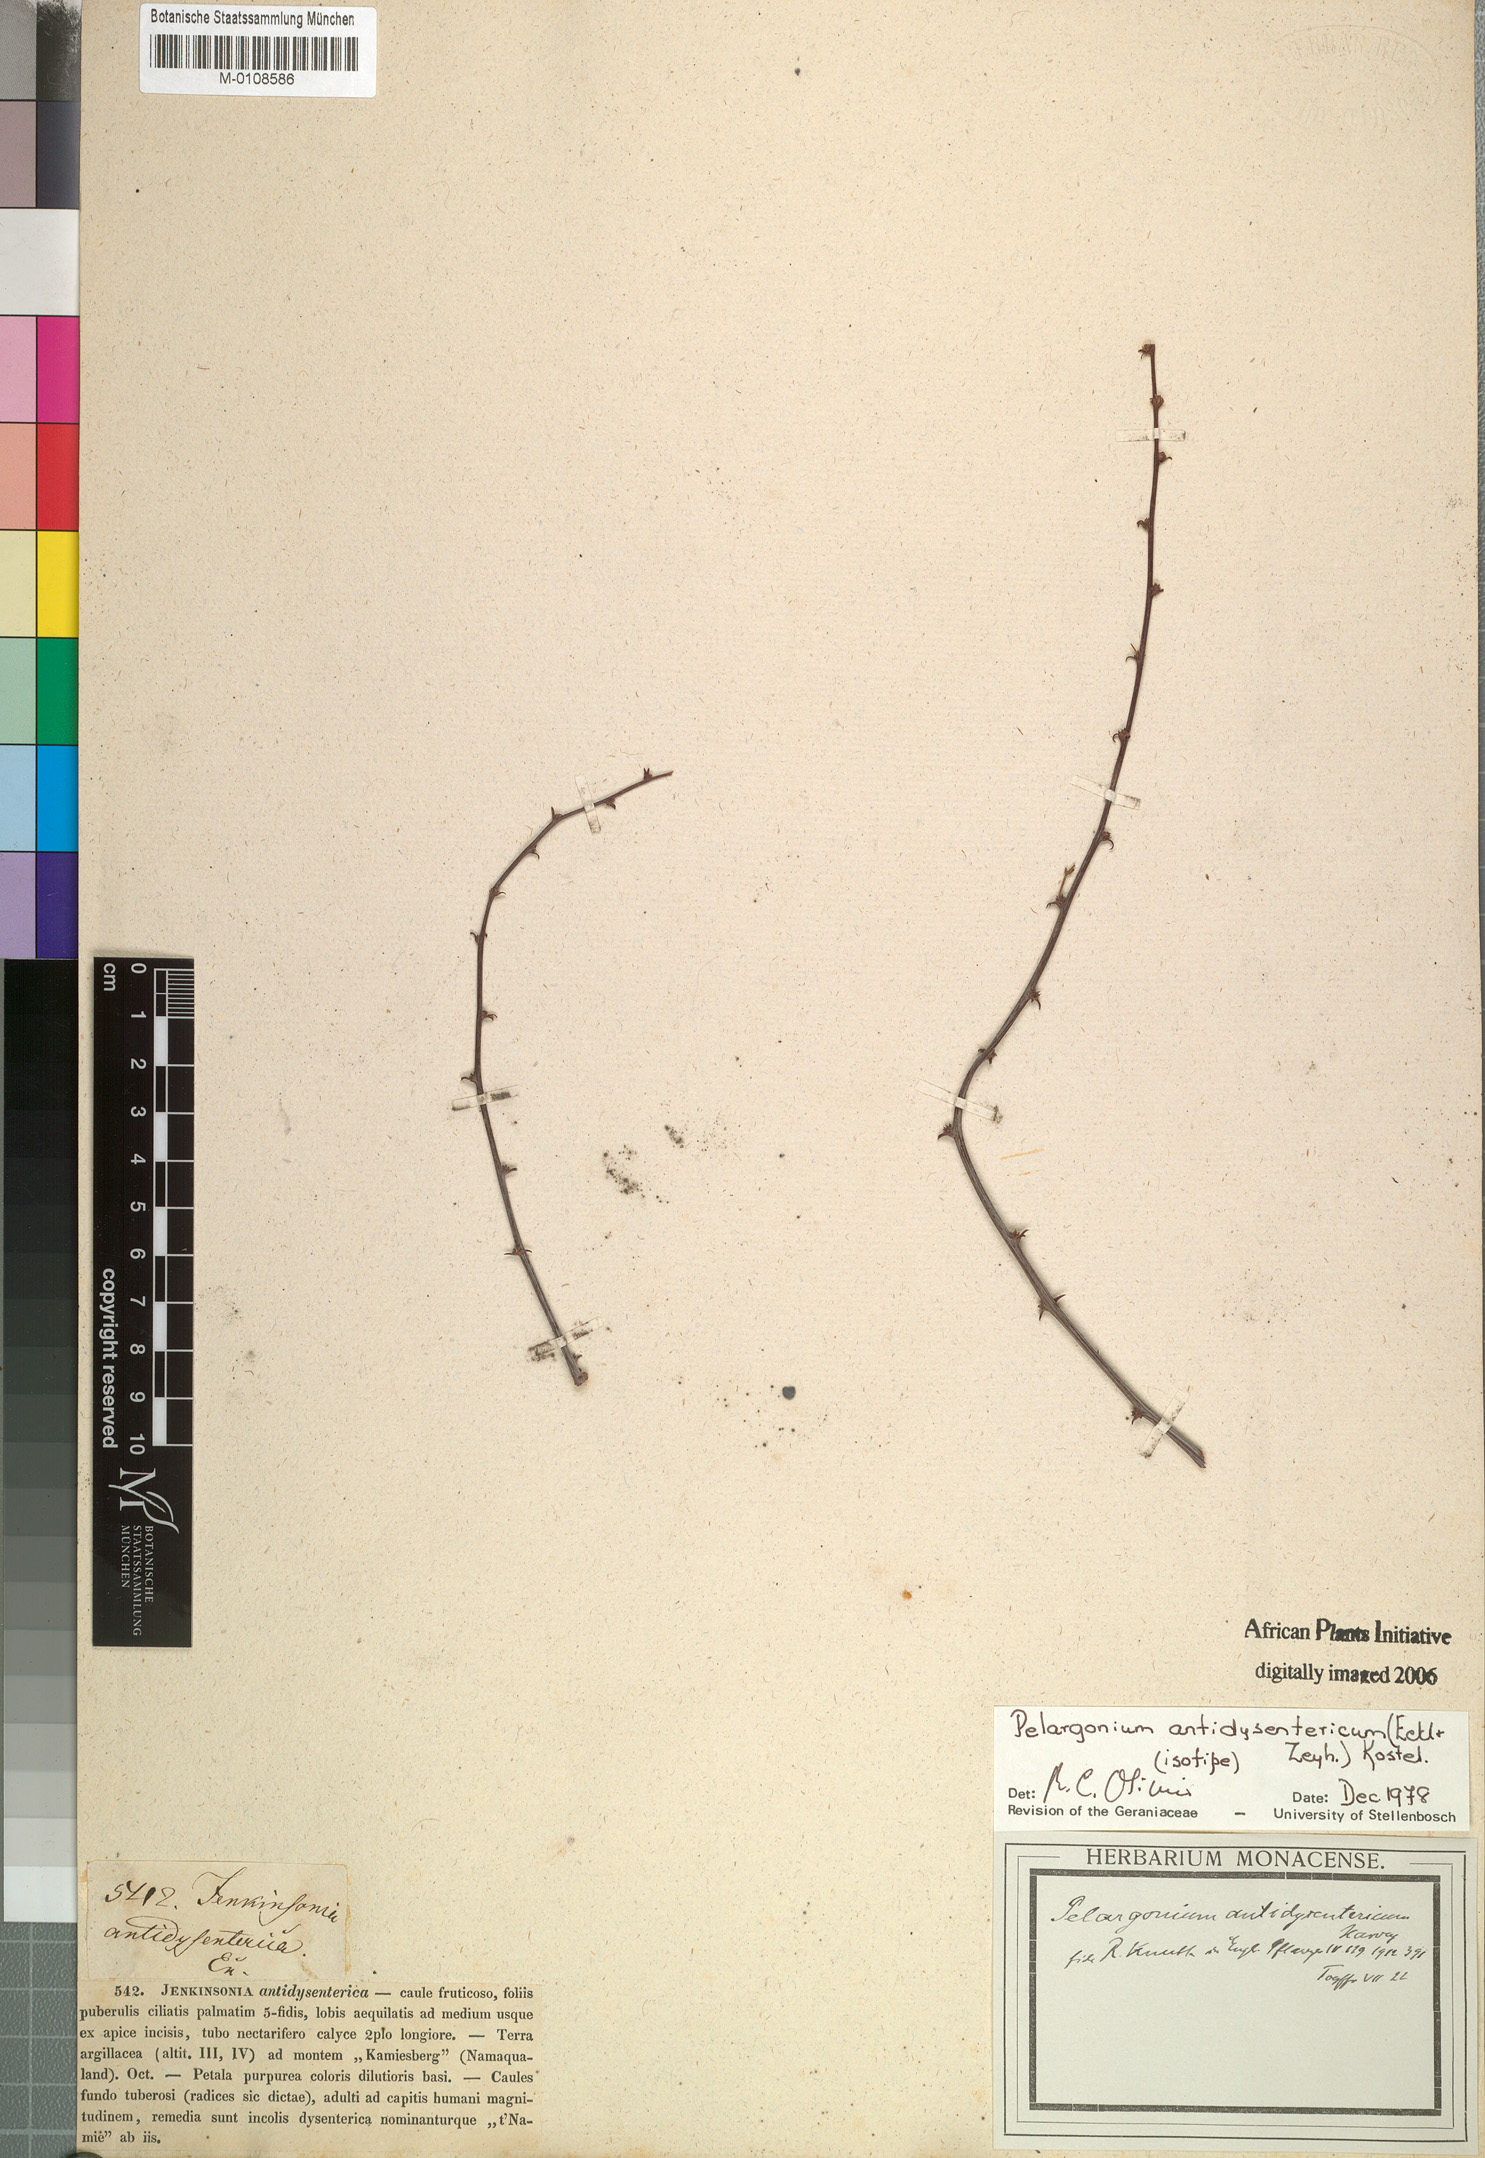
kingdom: Plantae
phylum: Tracheophyta
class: Magnoliopsida
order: Geraniales
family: Geraniaceae
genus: Pelargonium
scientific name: Pelargonium antidysentericum
